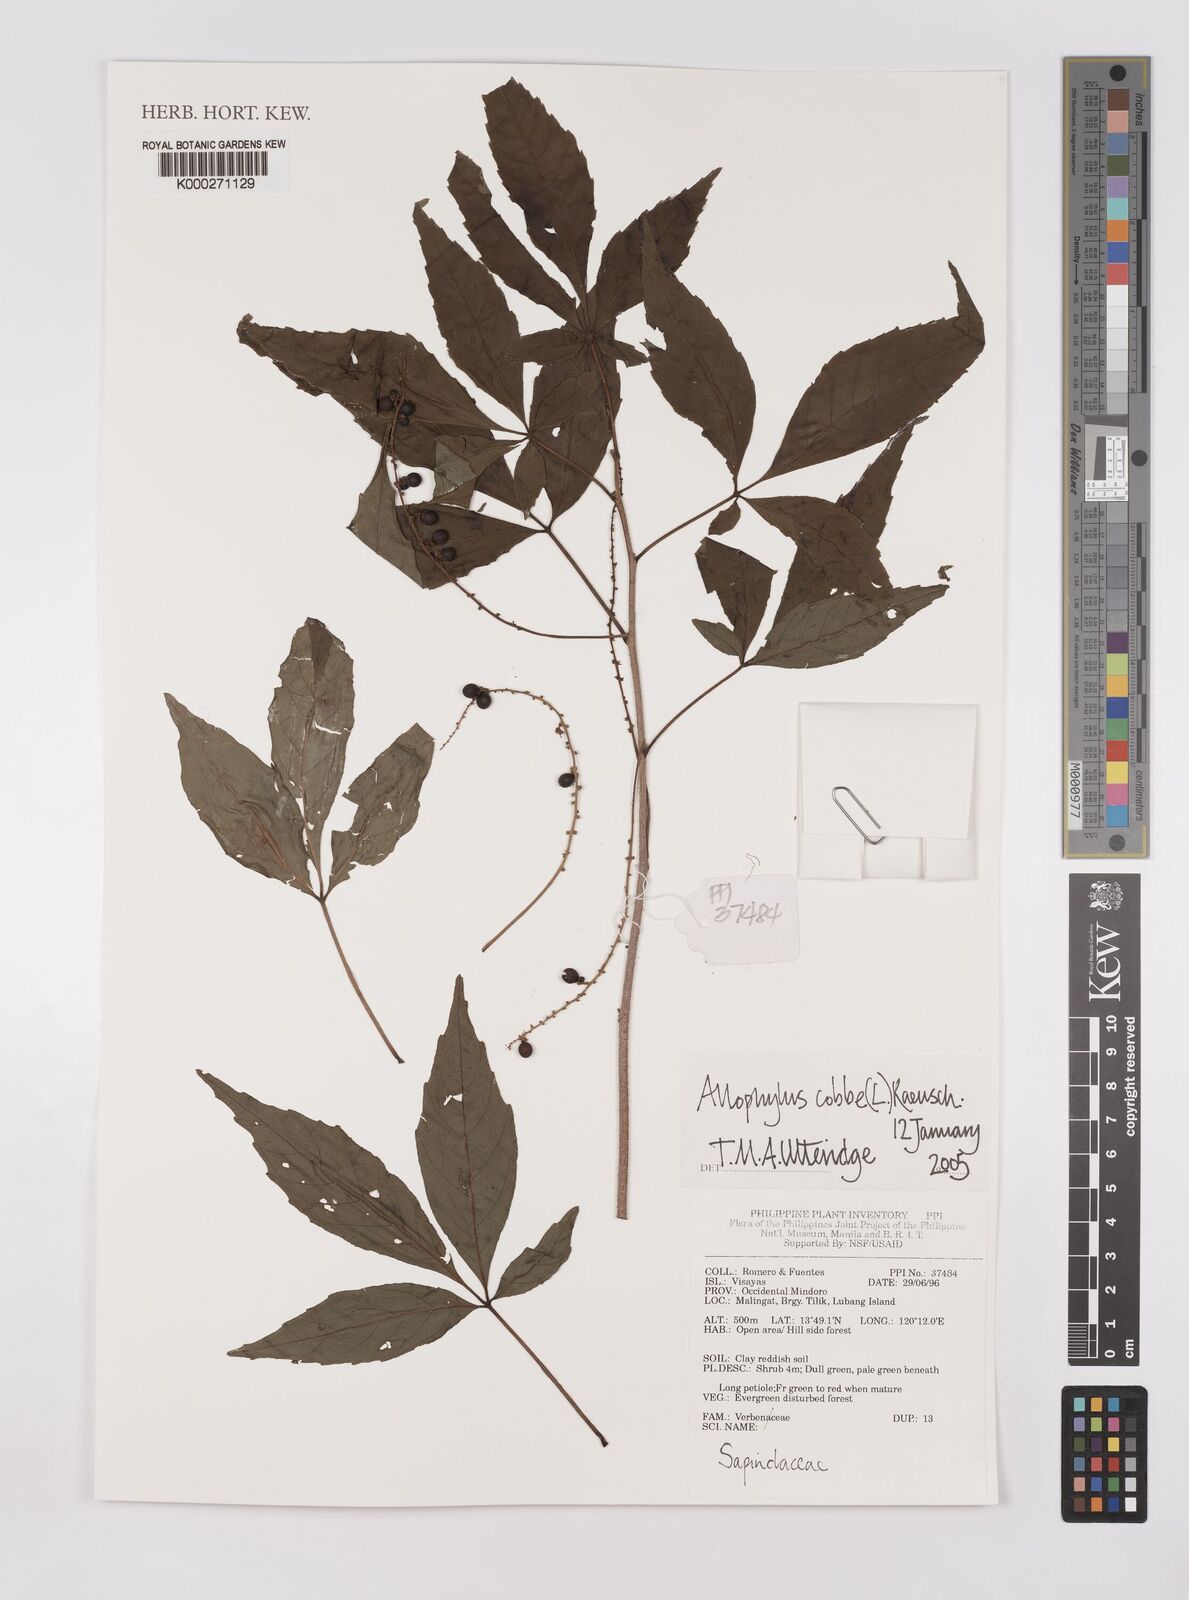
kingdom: Plantae
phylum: Tracheophyta
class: Magnoliopsida
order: Sapindales
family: Sapindaceae
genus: Allophylus
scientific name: Allophylus
